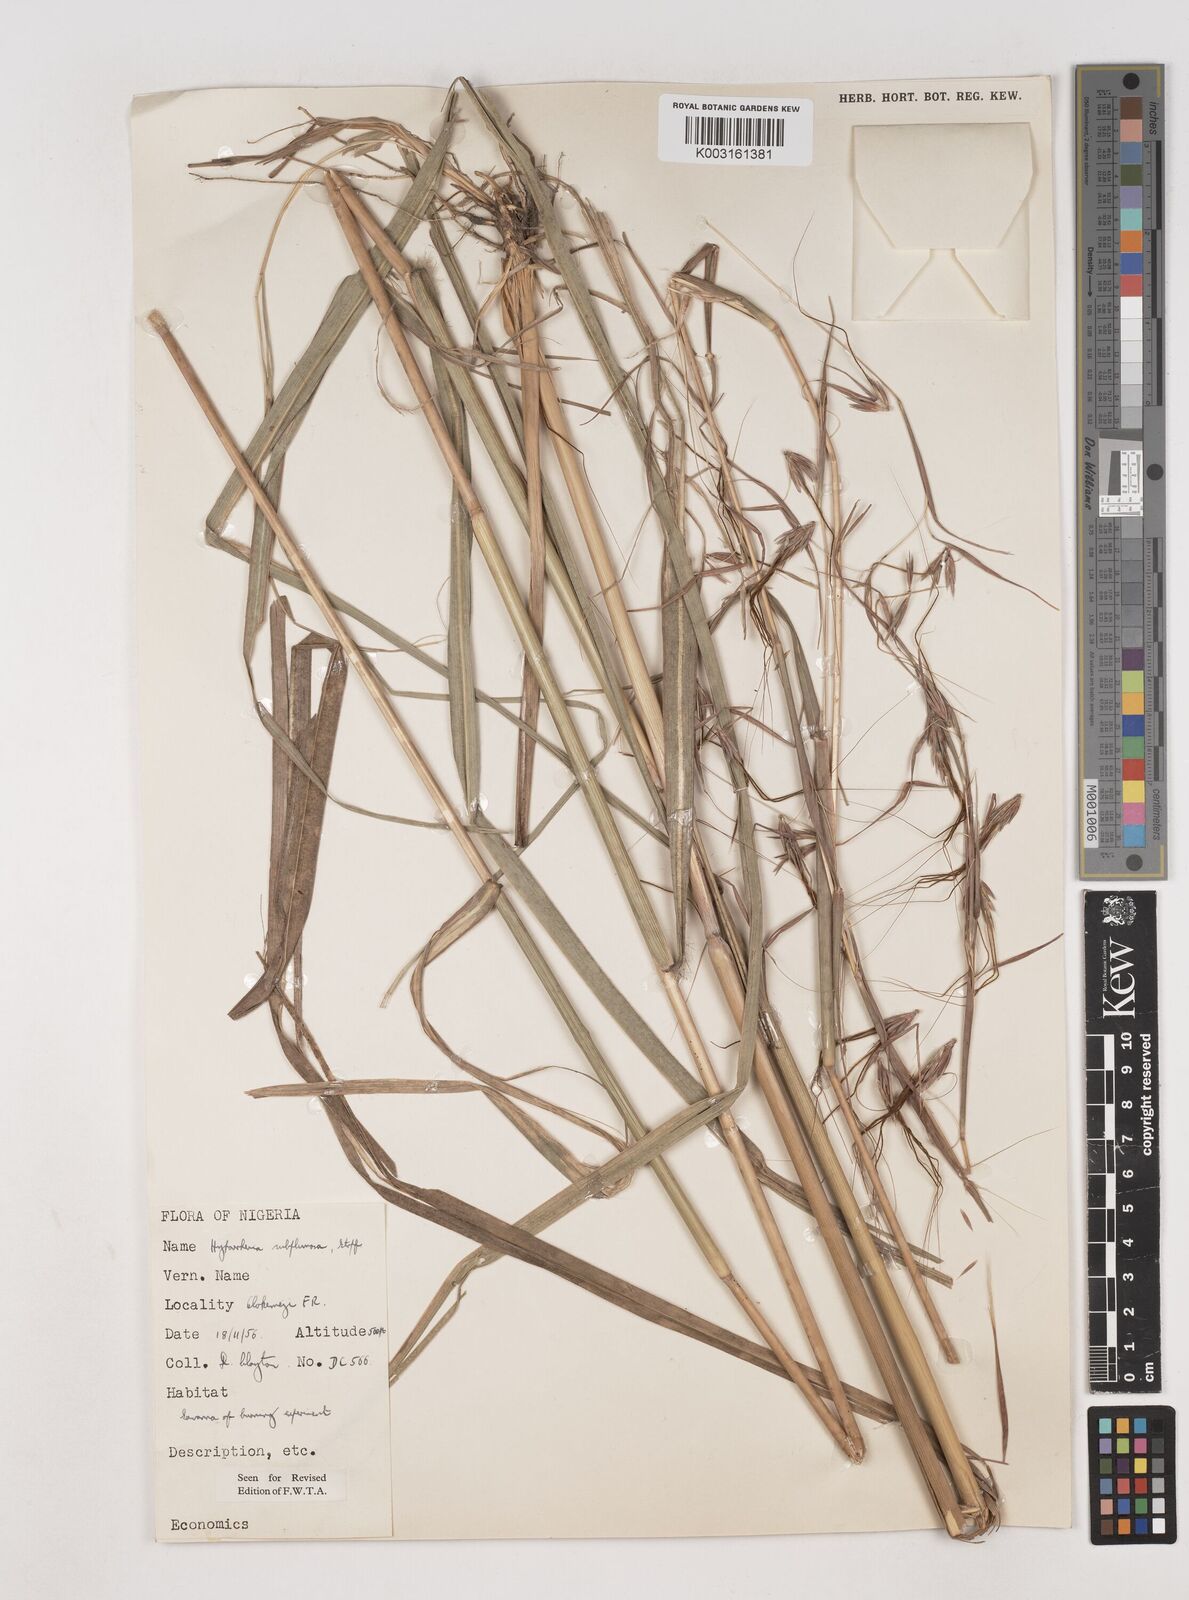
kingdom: Plantae
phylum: Tracheophyta
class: Liliopsida
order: Poales
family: Poaceae
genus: Hyparrhenia
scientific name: Hyparrhenia subplumosa
